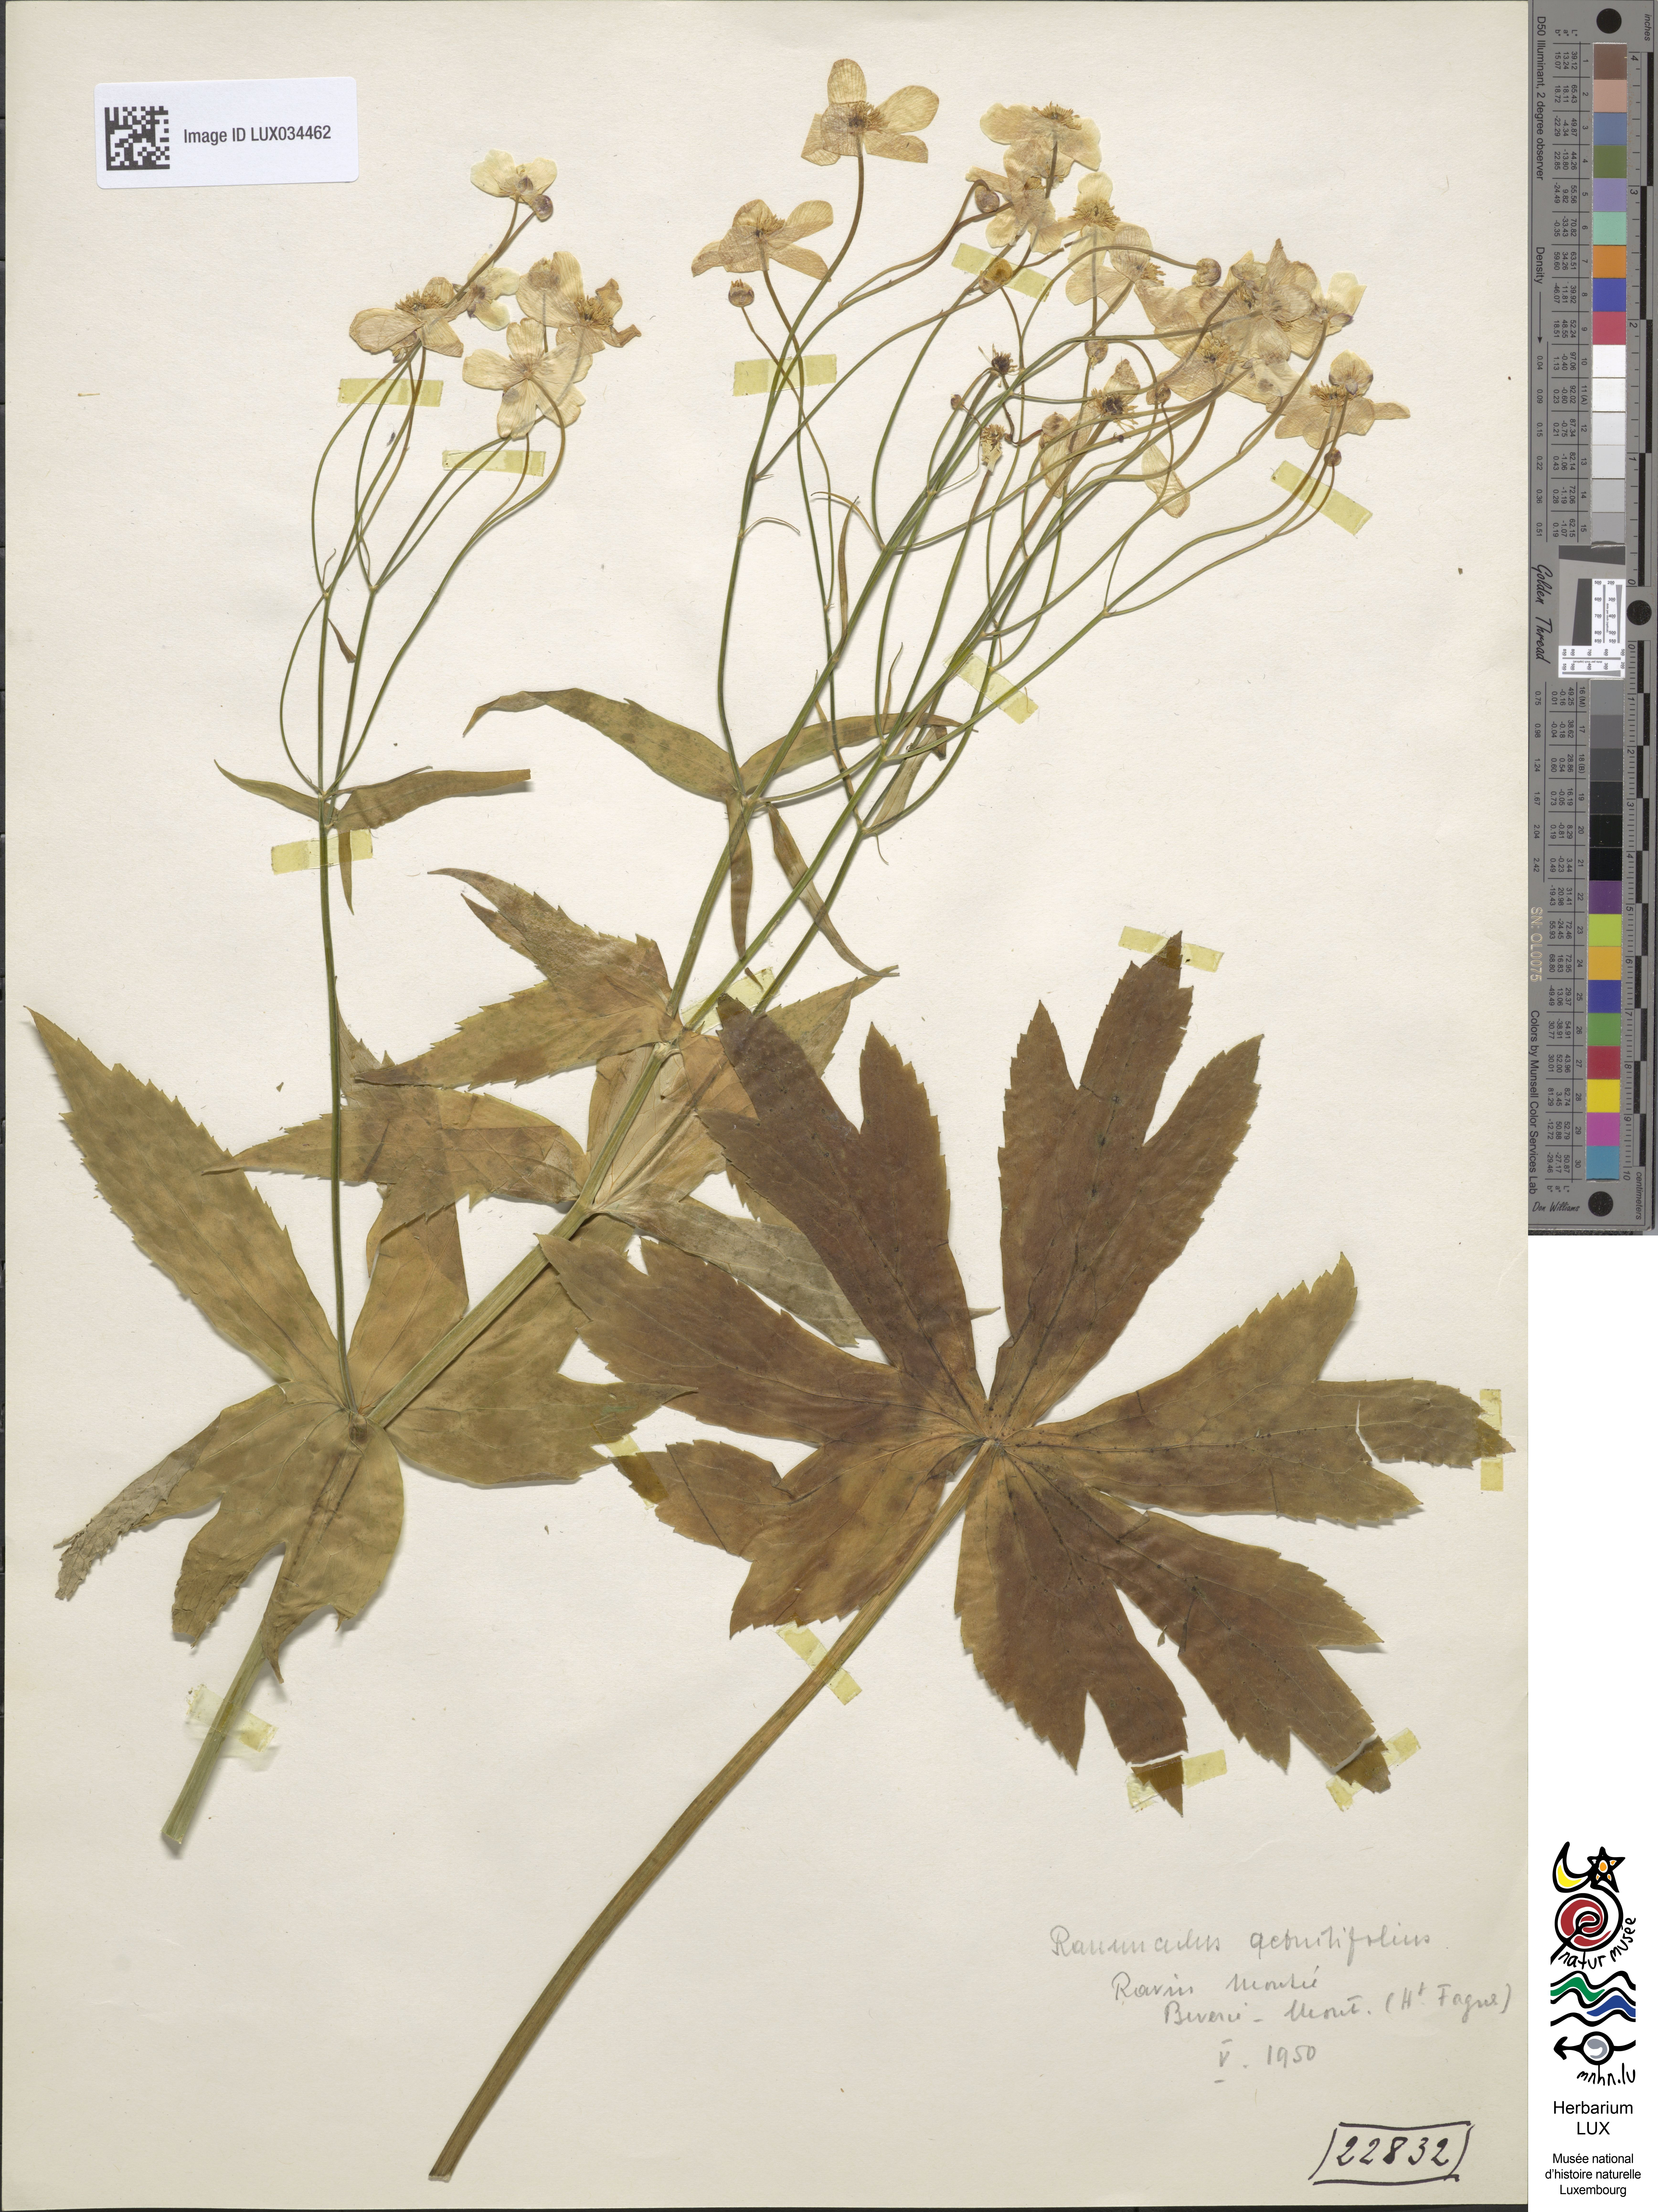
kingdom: Plantae
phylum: Tracheophyta
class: Magnoliopsida
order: Ranunculales
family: Ranunculaceae
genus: Ranunculus
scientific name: Ranunculus aconitifolius
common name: Aconite-leaved buttercup
